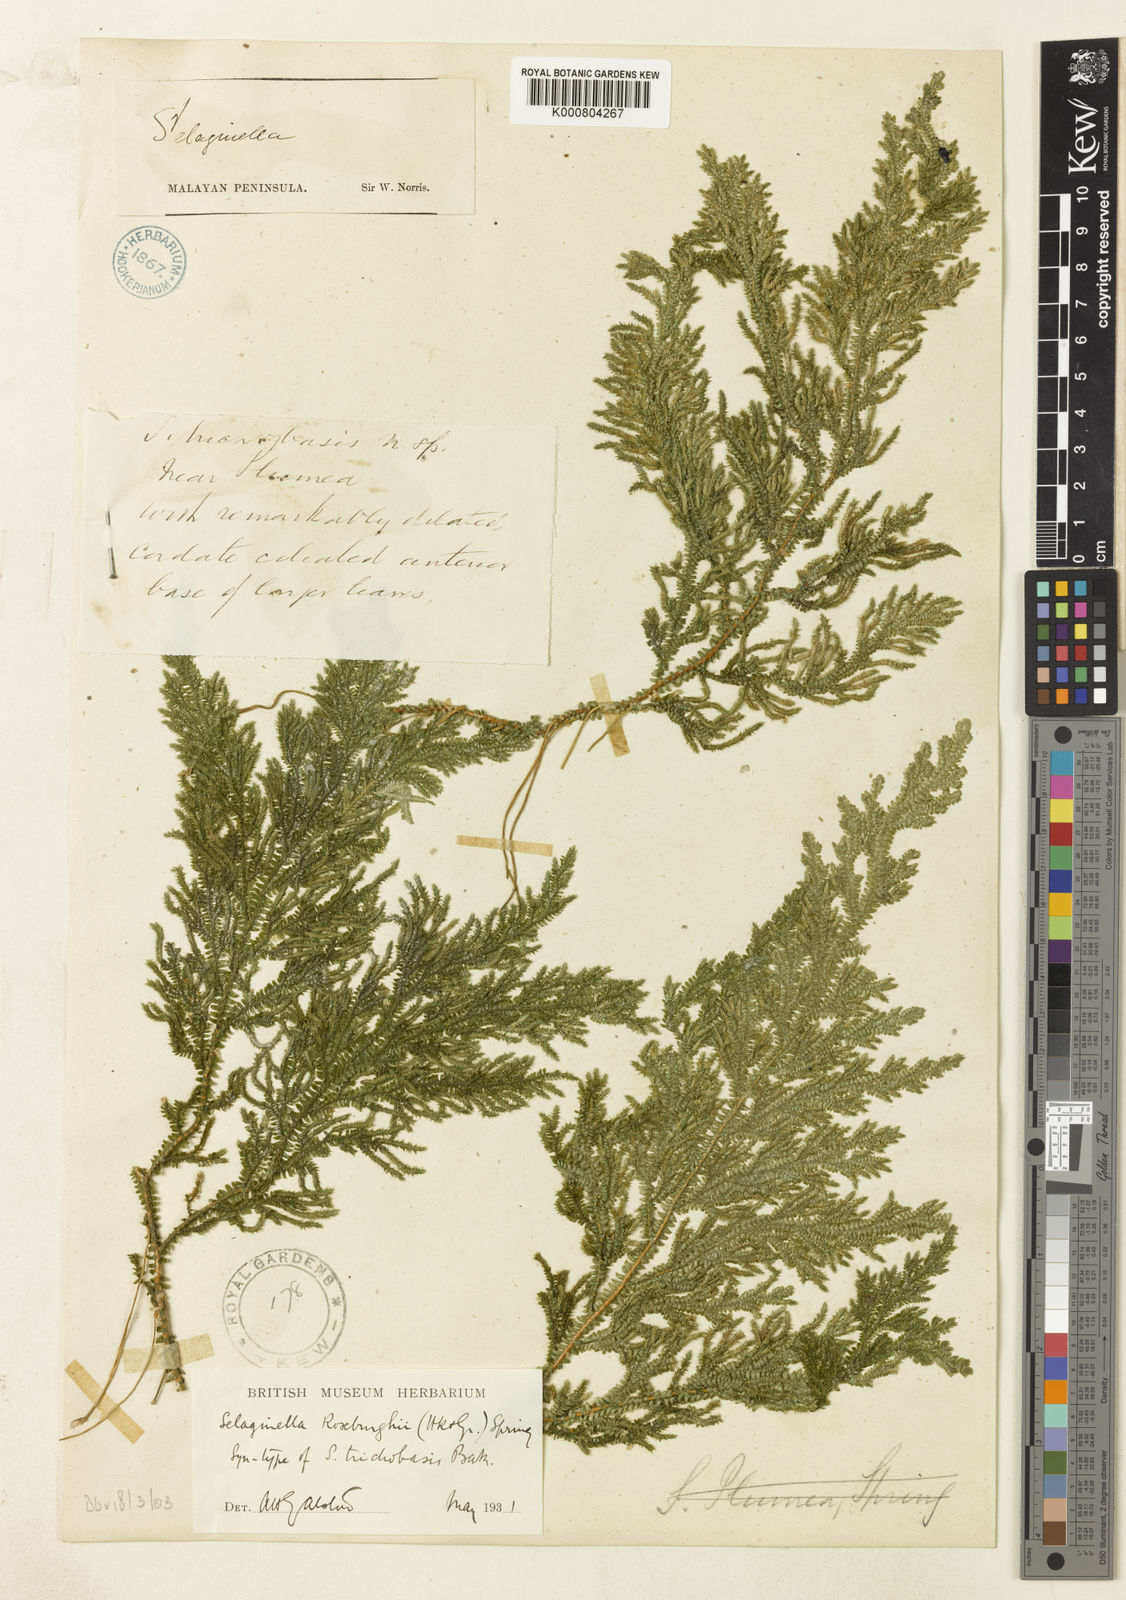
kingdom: Plantae
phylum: Tracheophyta
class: Lycopodiopsida
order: Selaginellales
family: Selaginellaceae
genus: Selaginella
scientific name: Selaginella roxburghii
